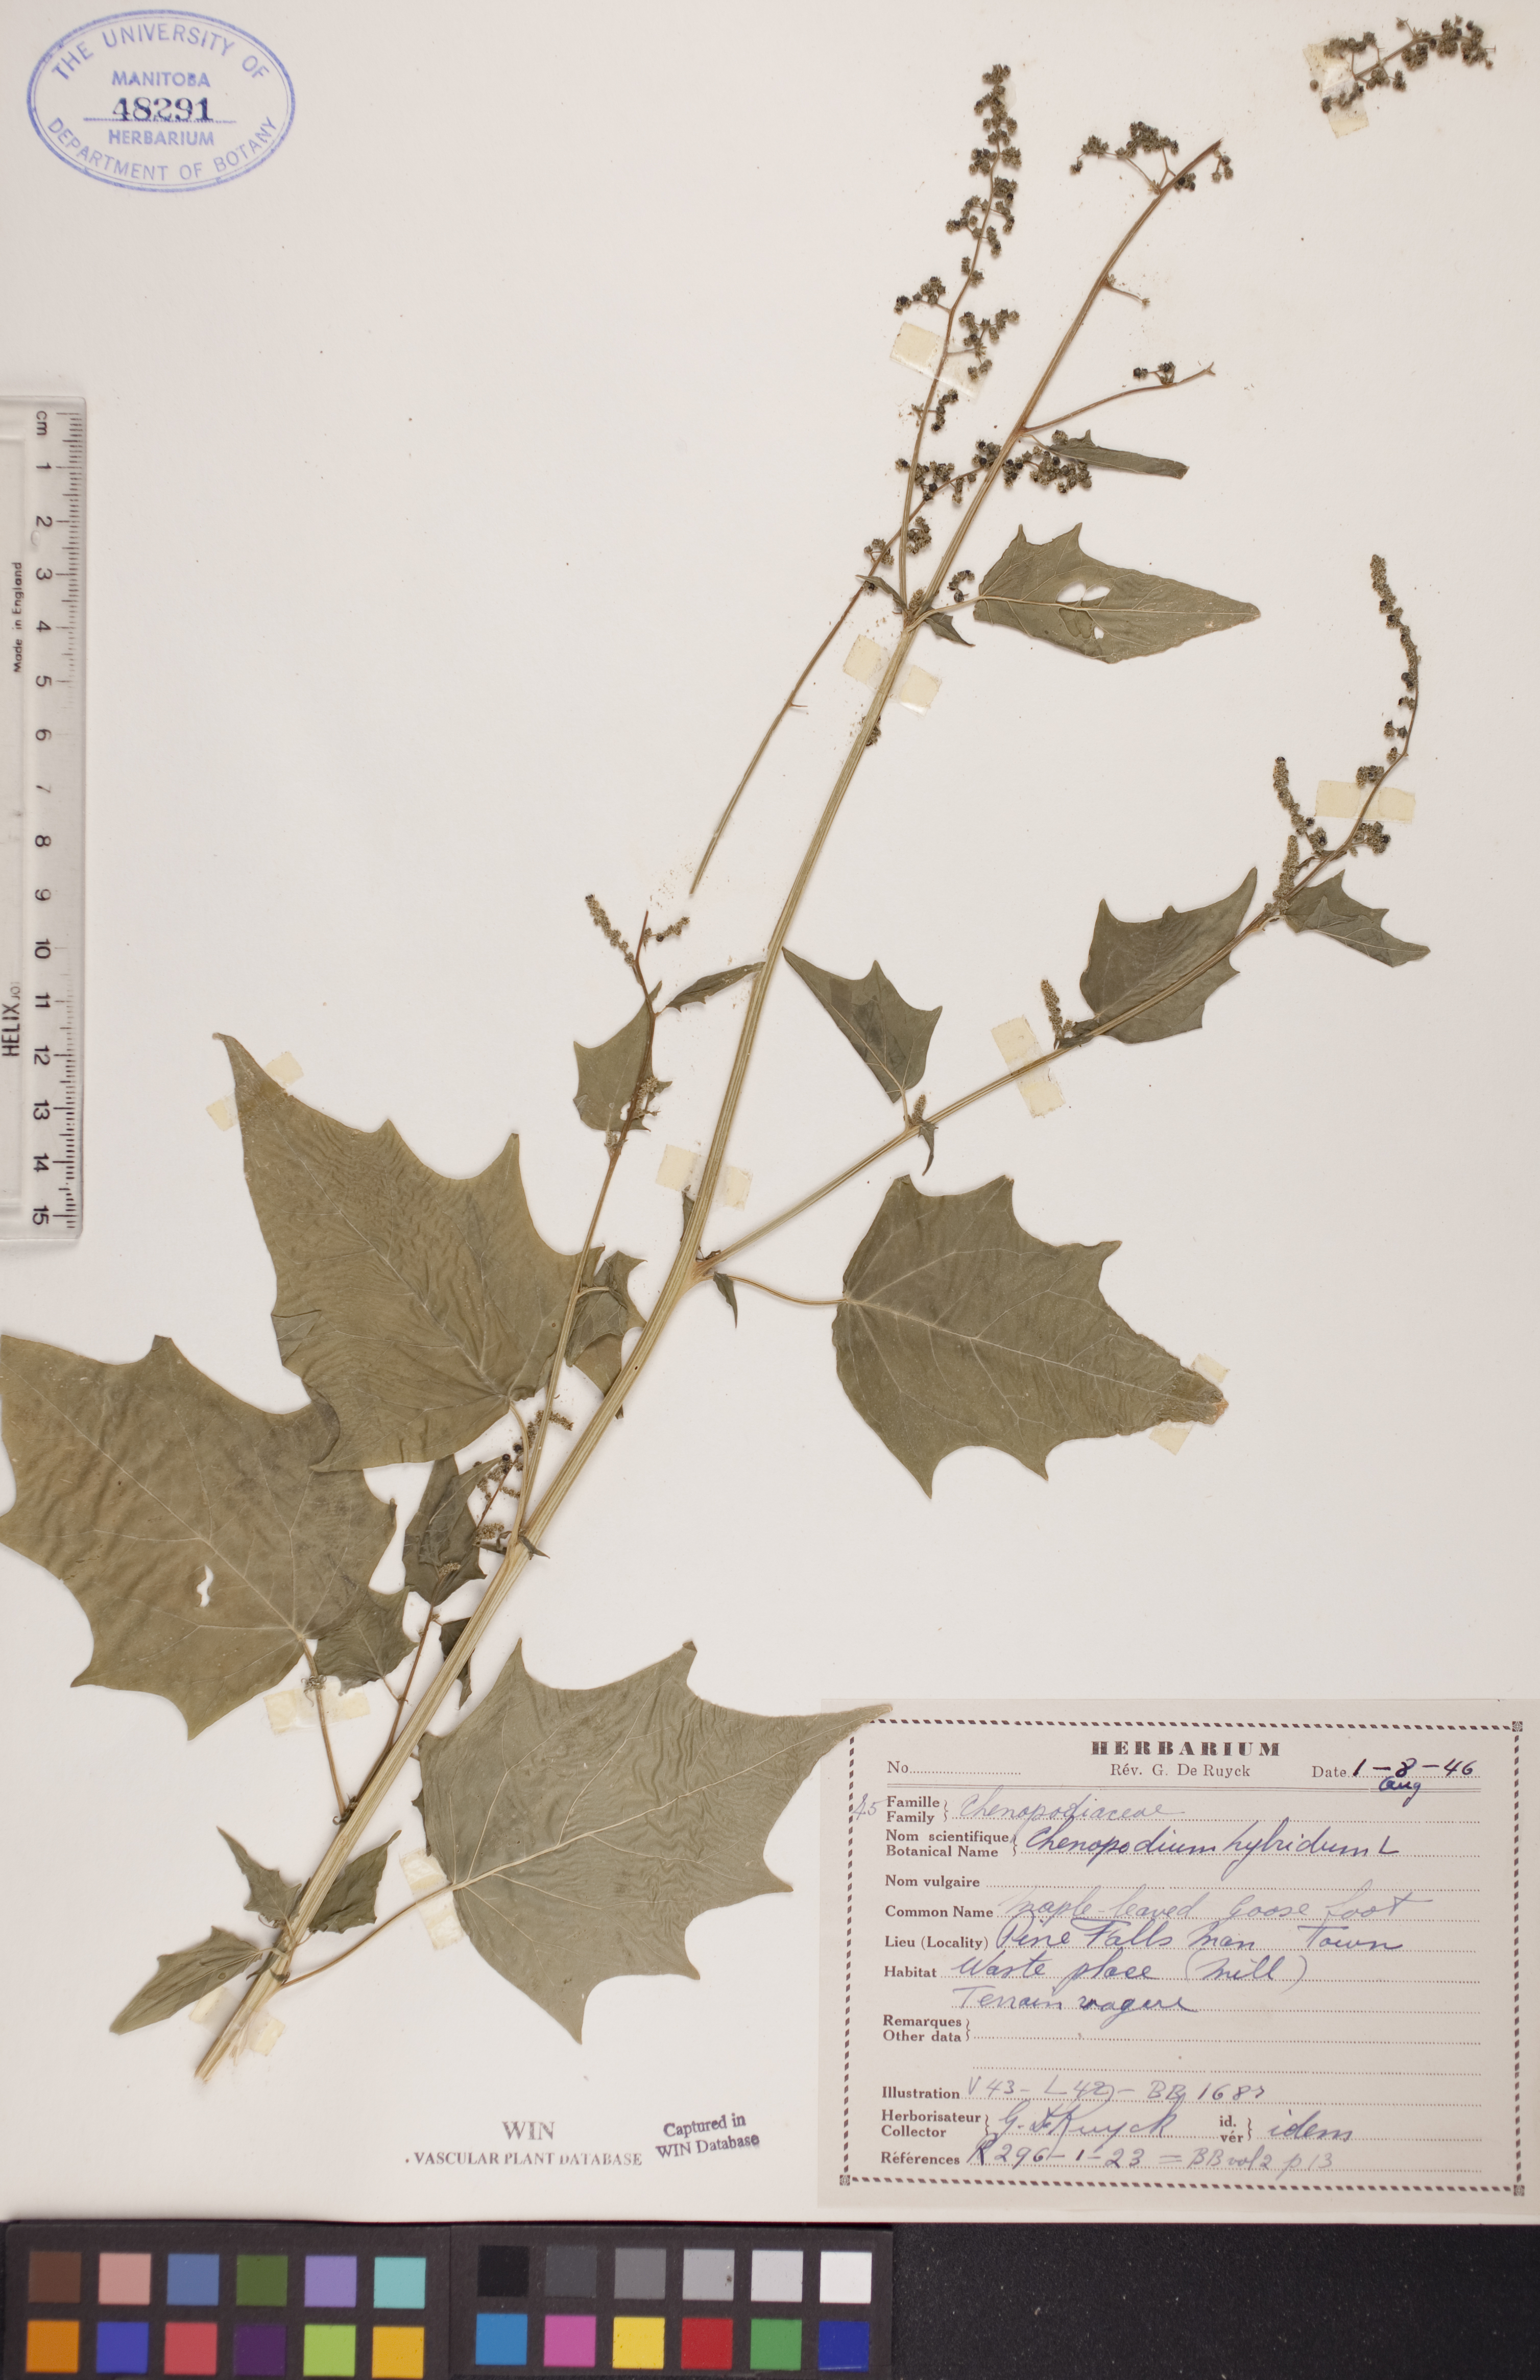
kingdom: Plantae
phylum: Tracheophyta
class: Magnoliopsida
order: Caryophyllales
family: Amaranthaceae
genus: Chenopodiastrum
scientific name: Chenopodiastrum hybridum
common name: Mapleleaf goosefoot
